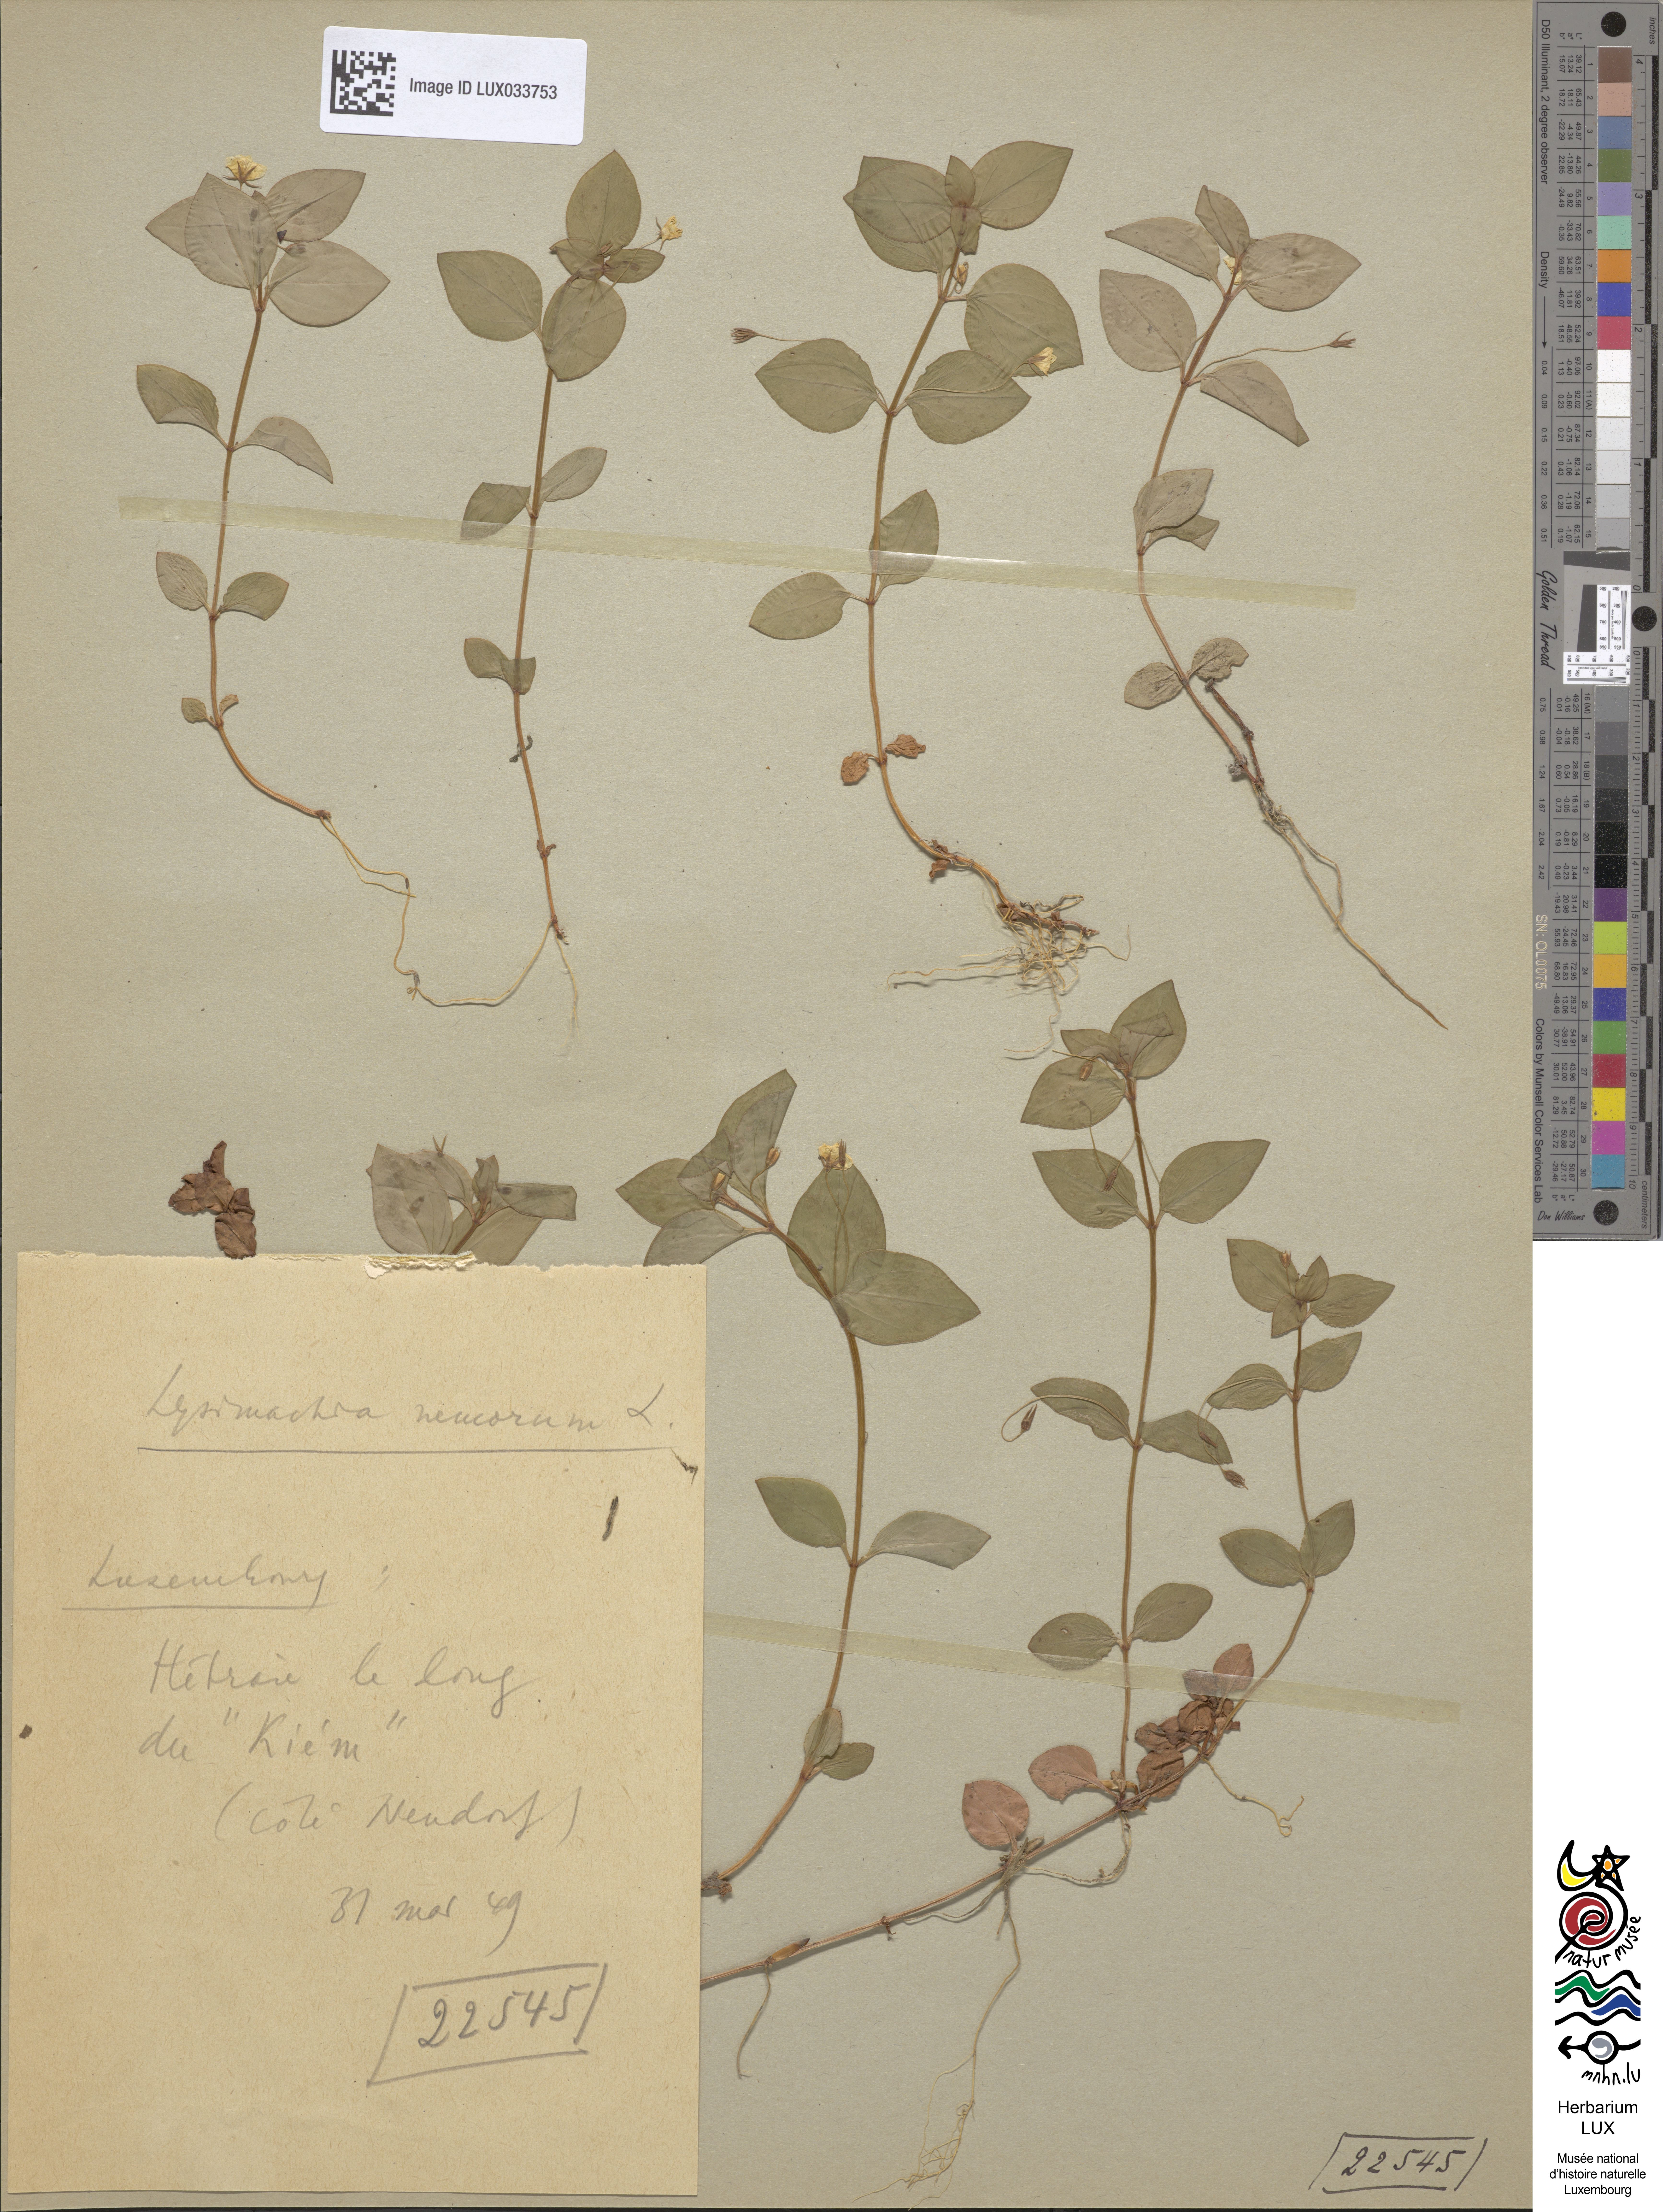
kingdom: Plantae
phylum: Tracheophyta
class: Magnoliopsida
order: Ericales
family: Primulaceae
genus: Lysimachia
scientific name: Lysimachia nemorum
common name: Yellow pimpernel
